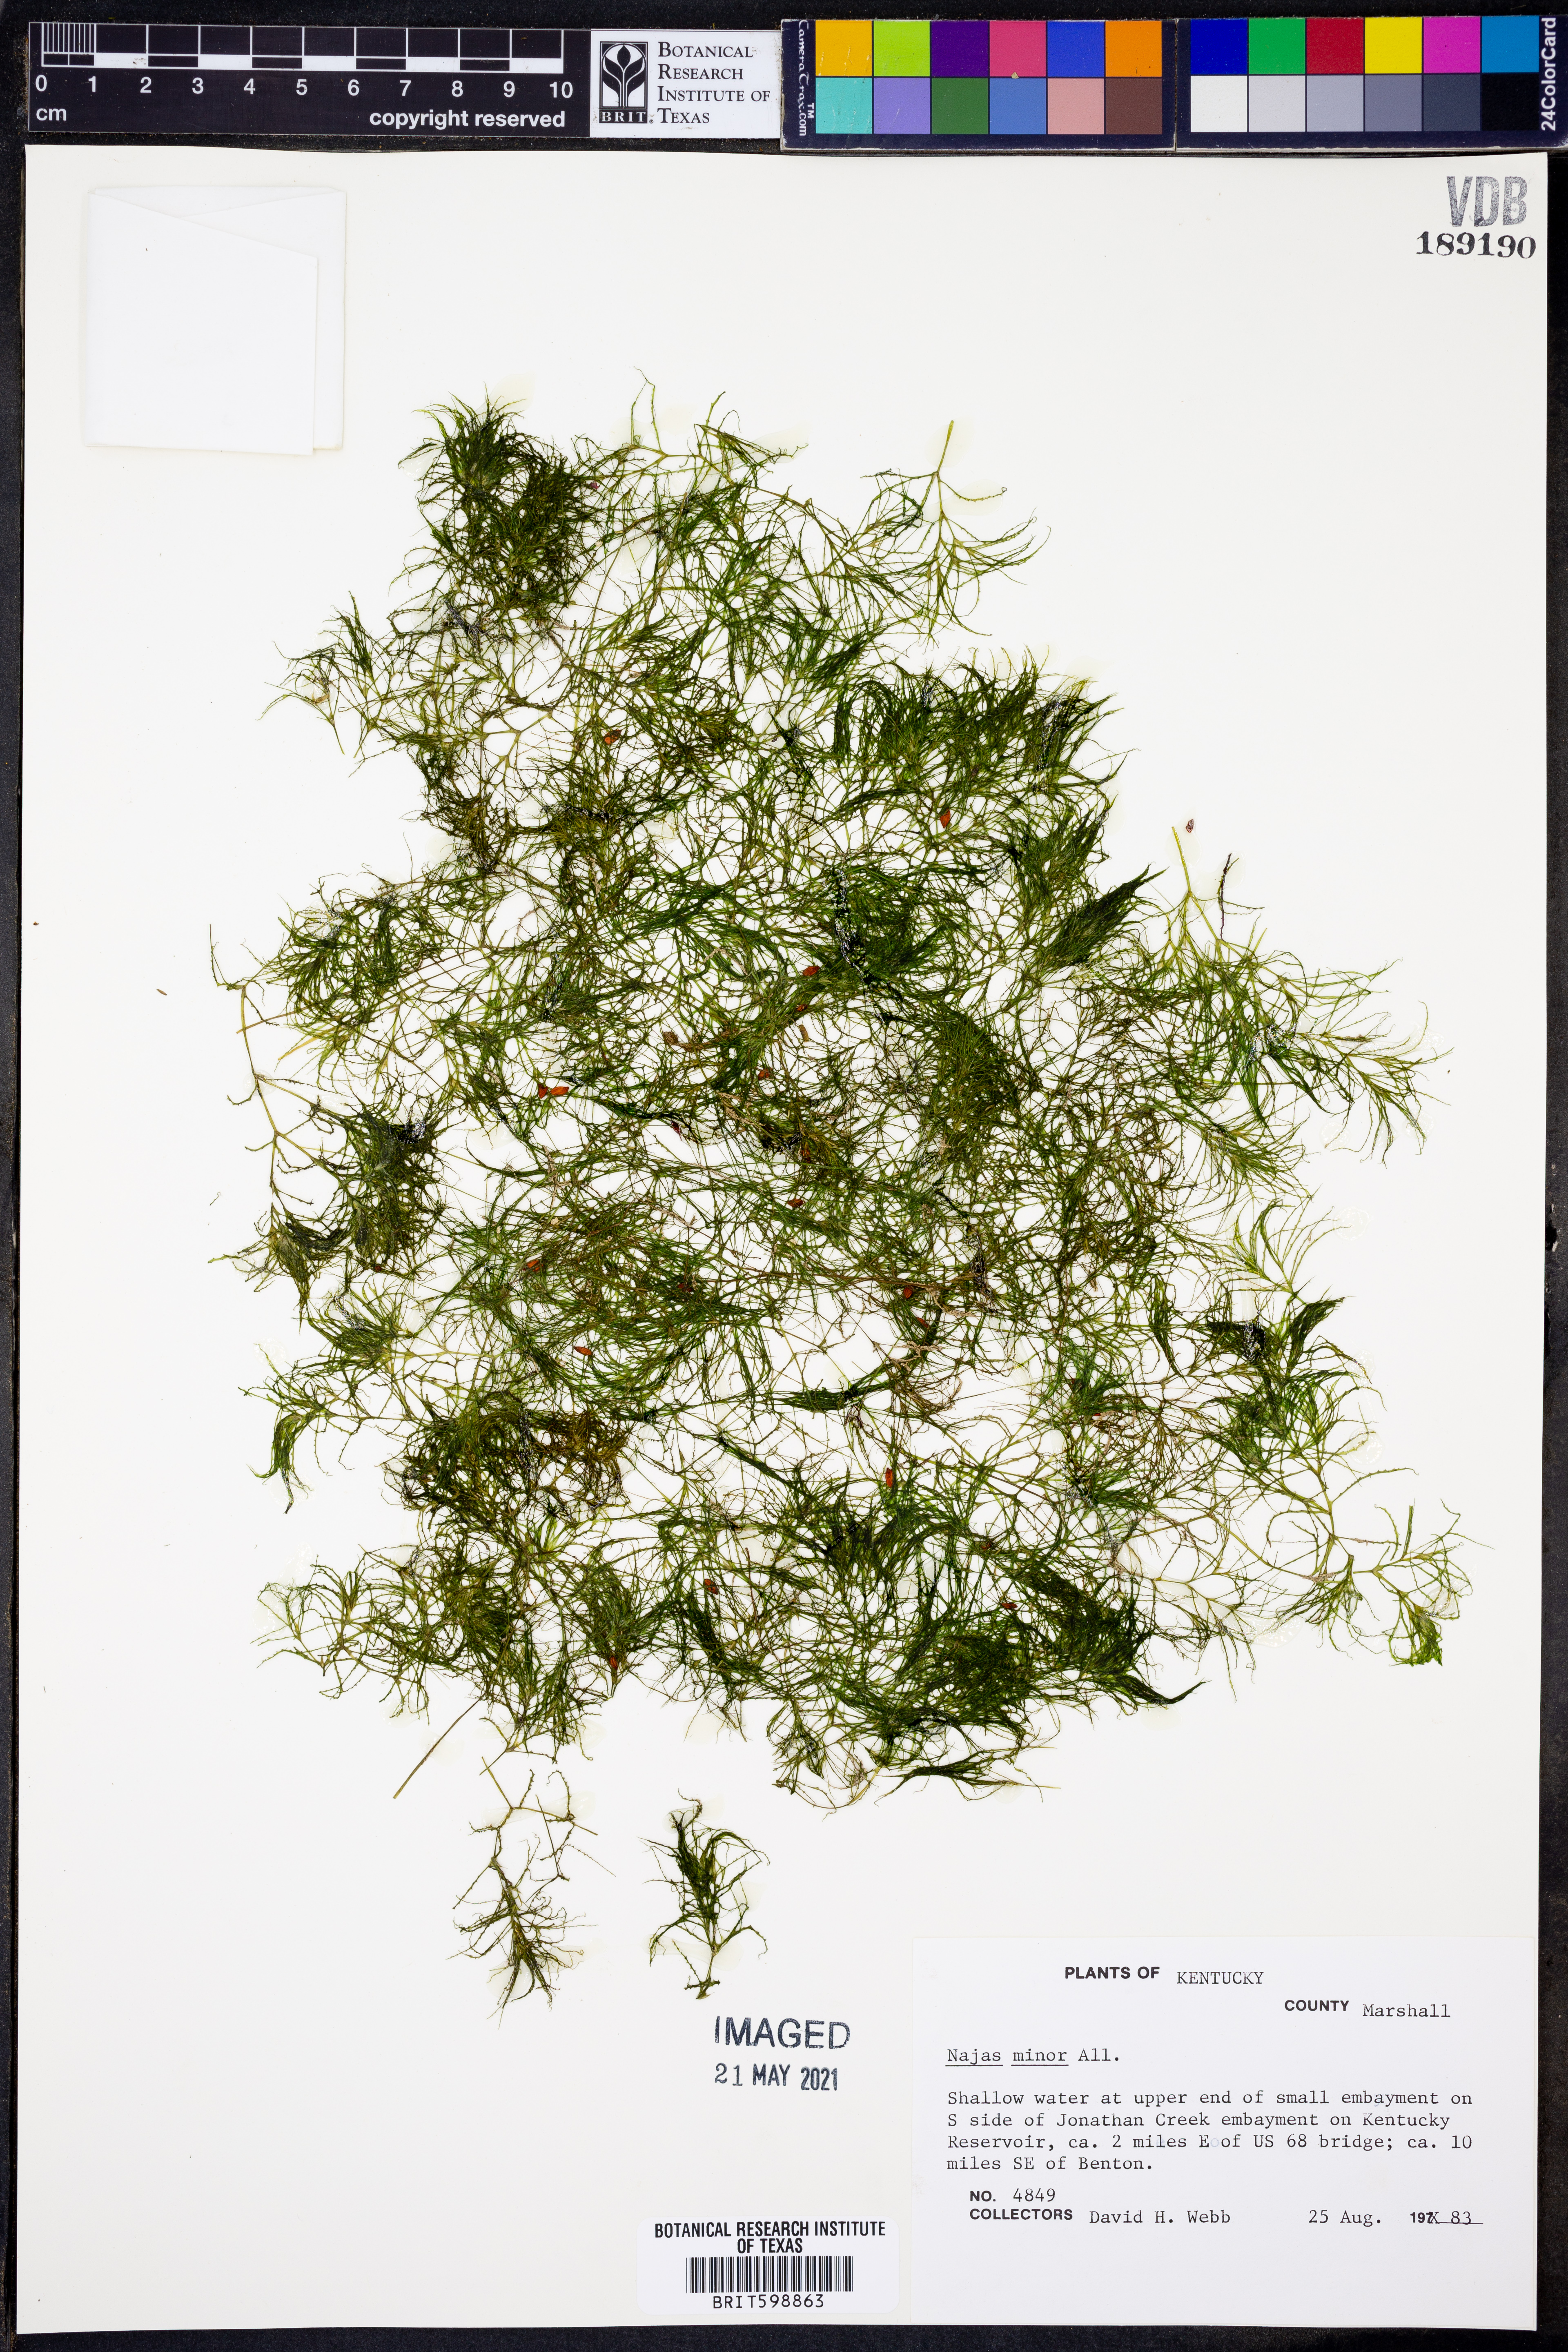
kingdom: Plantae
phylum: Tracheophyta
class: Liliopsida
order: Alismatales
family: Hydrocharitaceae
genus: Najas
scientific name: Najas minor
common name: Brittle naiad
